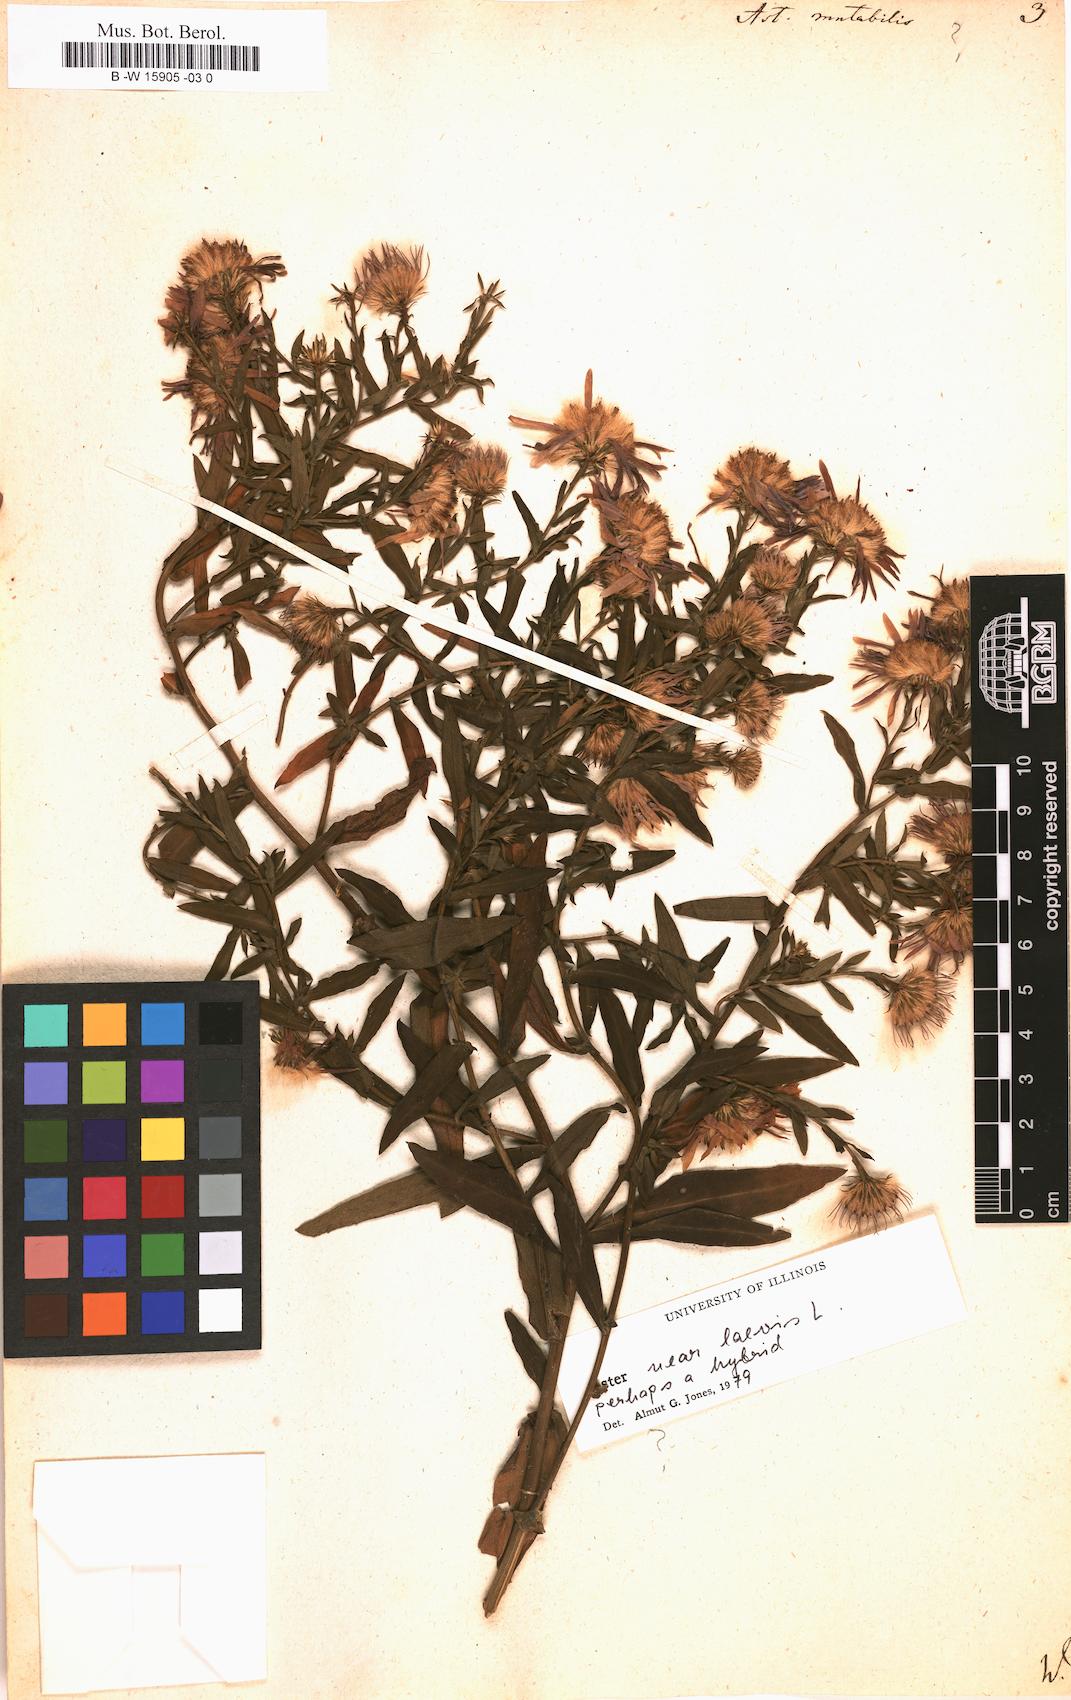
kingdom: Plantae
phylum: Tracheophyta
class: Magnoliopsida
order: Asterales
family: Asteraceae
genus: Aster
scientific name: Aster mutabilis
